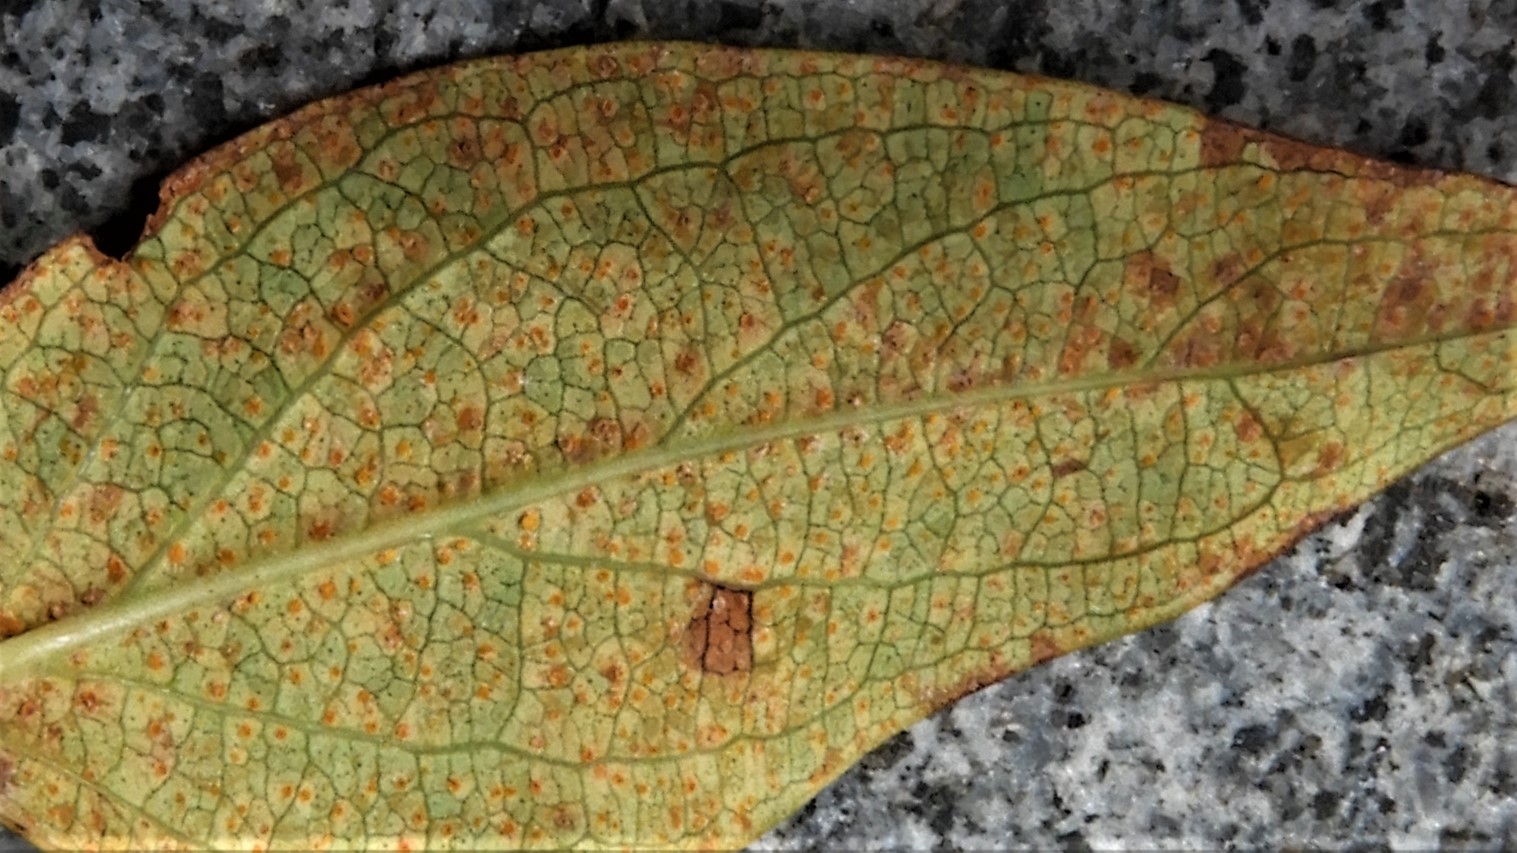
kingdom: Fungi
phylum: Basidiomycota
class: Pucciniomycetes
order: Pucciniales
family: Melampsoraceae
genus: Melampsora
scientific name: Melampsora hypericorum
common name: Tutsan rust
